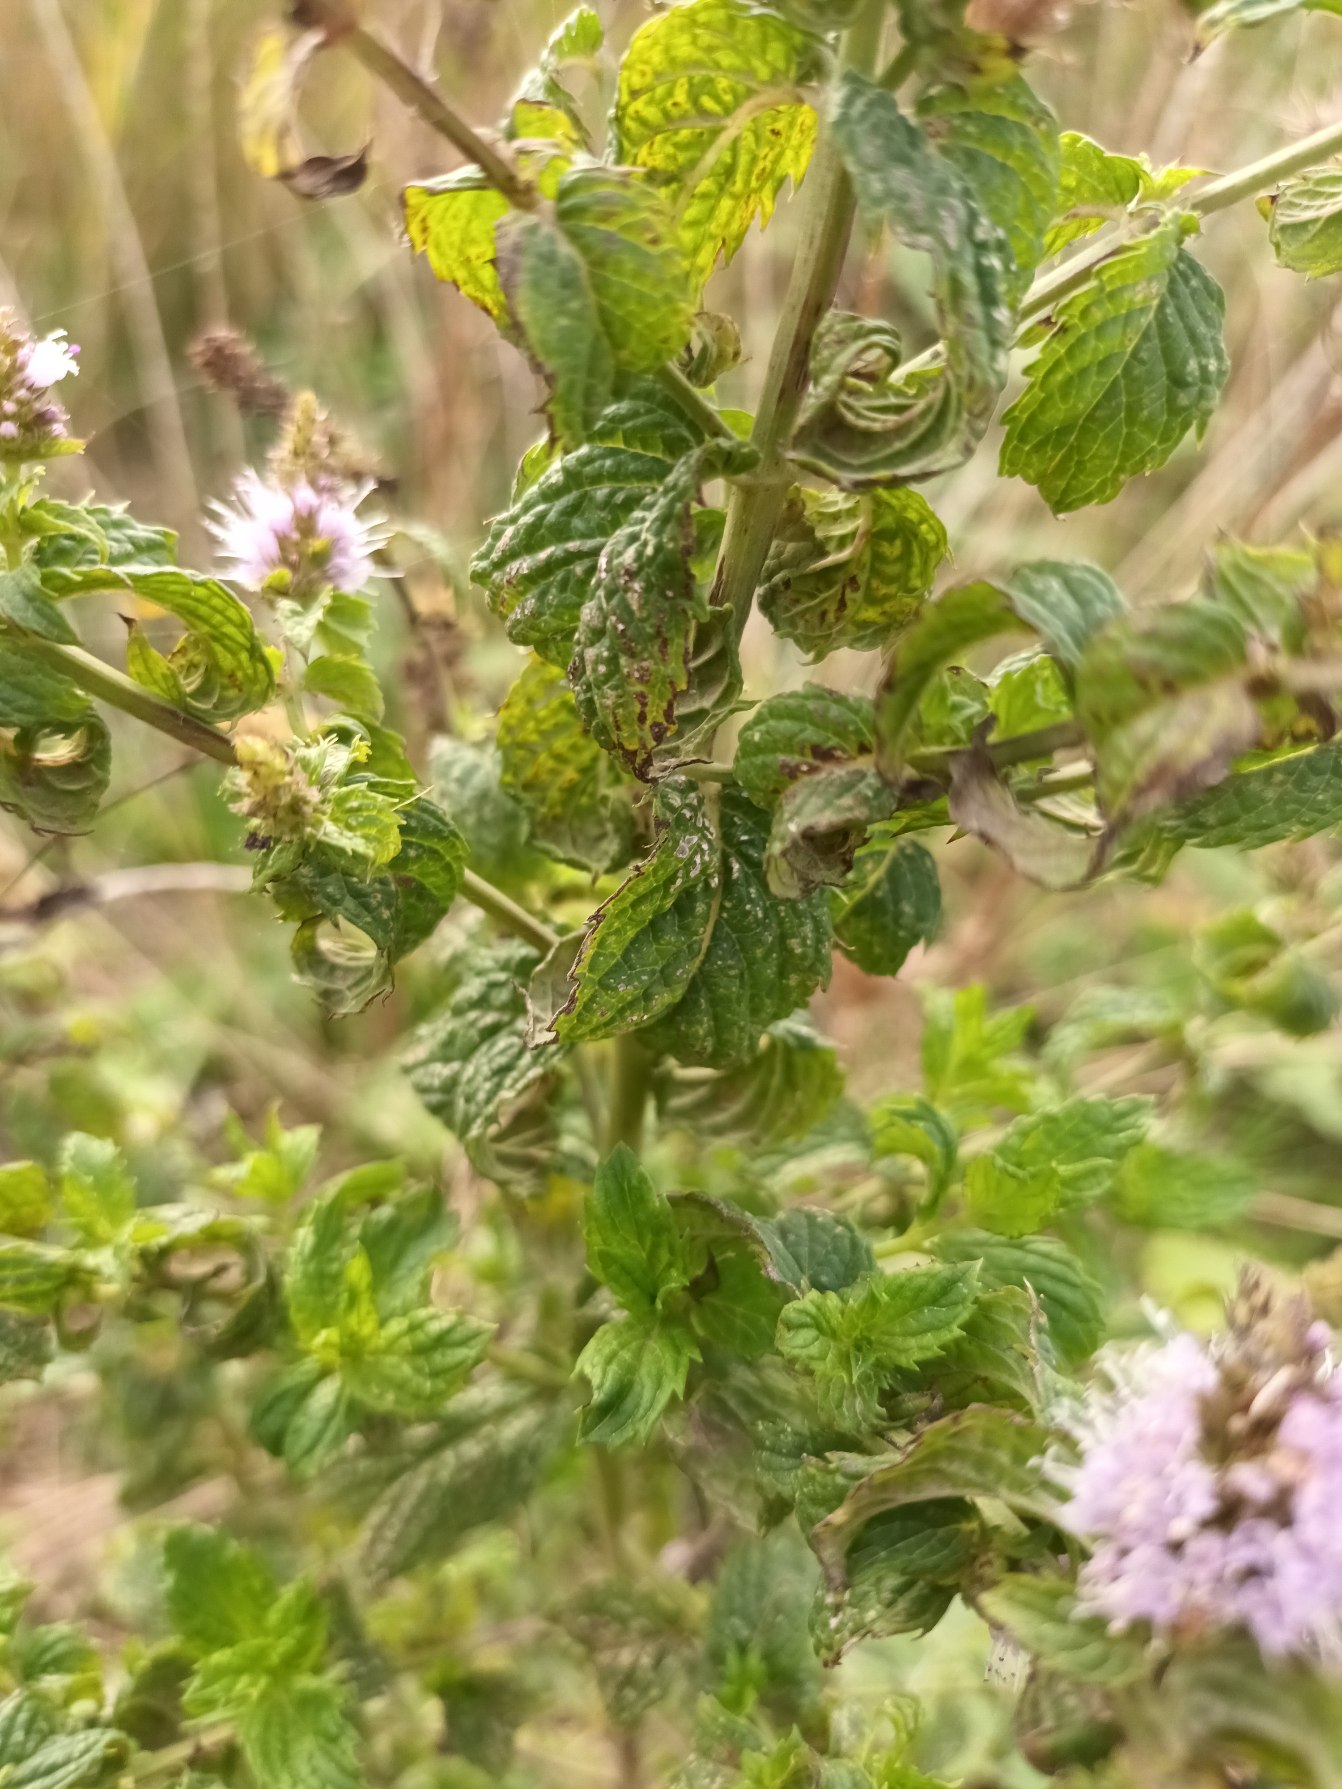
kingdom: Plantae
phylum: Tracheophyta
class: Magnoliopsida
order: Lamiales
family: Lamiaceae
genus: Mentha
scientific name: Mentha
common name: Grå mynte × grøn mynte
